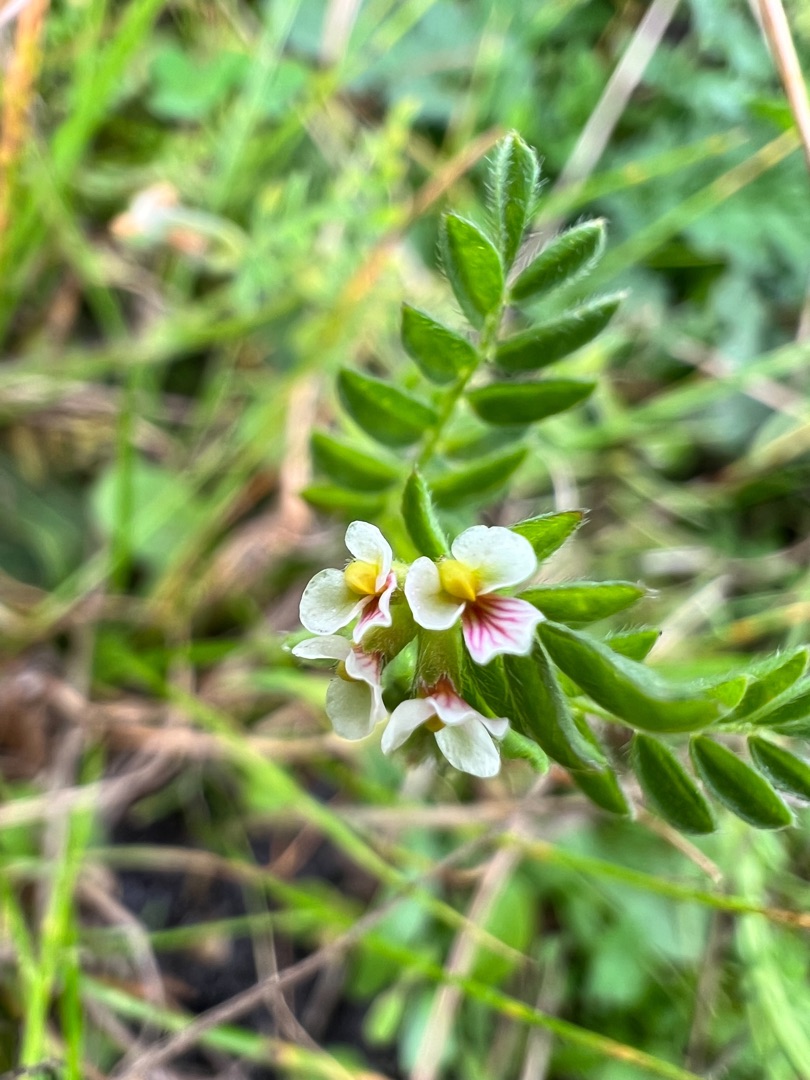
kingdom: Plantae
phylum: Tracheophyta
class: Magnoliopsida
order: Fabales
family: Fabaceae
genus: Ornithopus
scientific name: Ornithopus perpusillus
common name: Liden fugleklo
